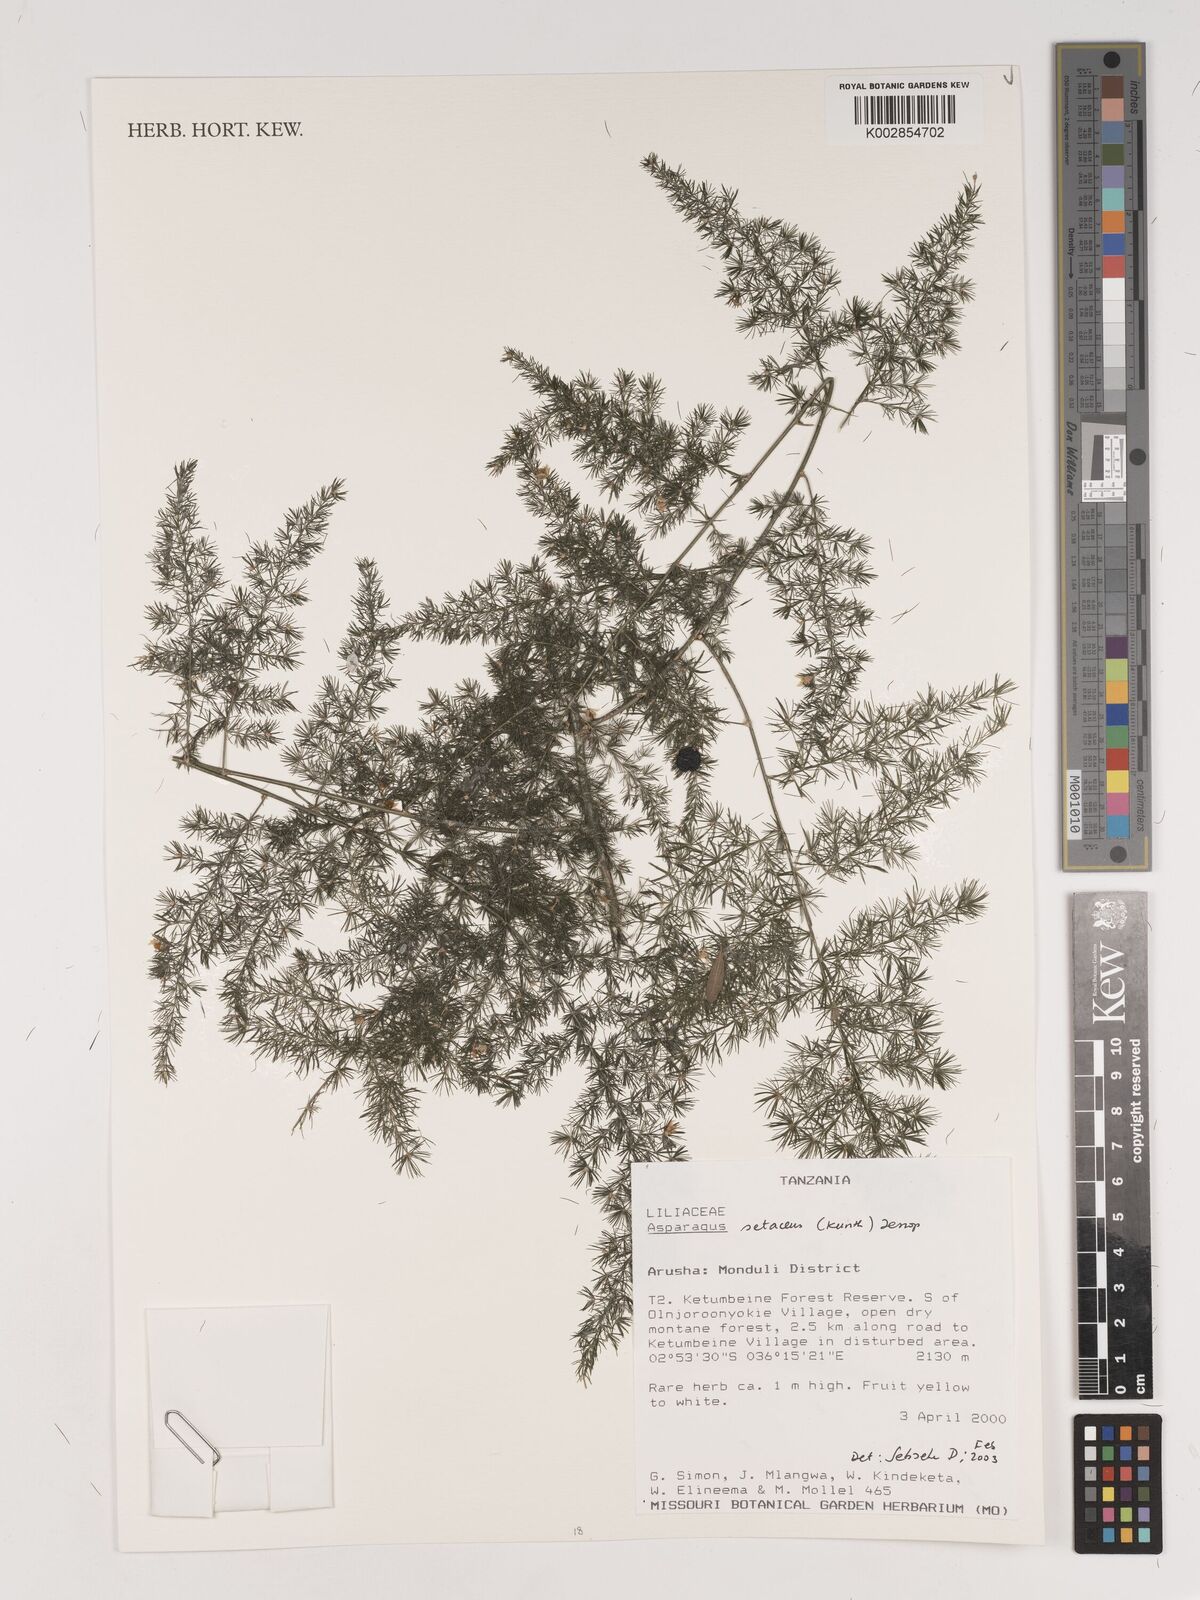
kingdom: Plantae
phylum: Tracheophyta
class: Liliopsida
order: Asparagales
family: Asparagaceae
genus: Asparagus
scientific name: Asparagus setaceus
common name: Common asparagus fern
